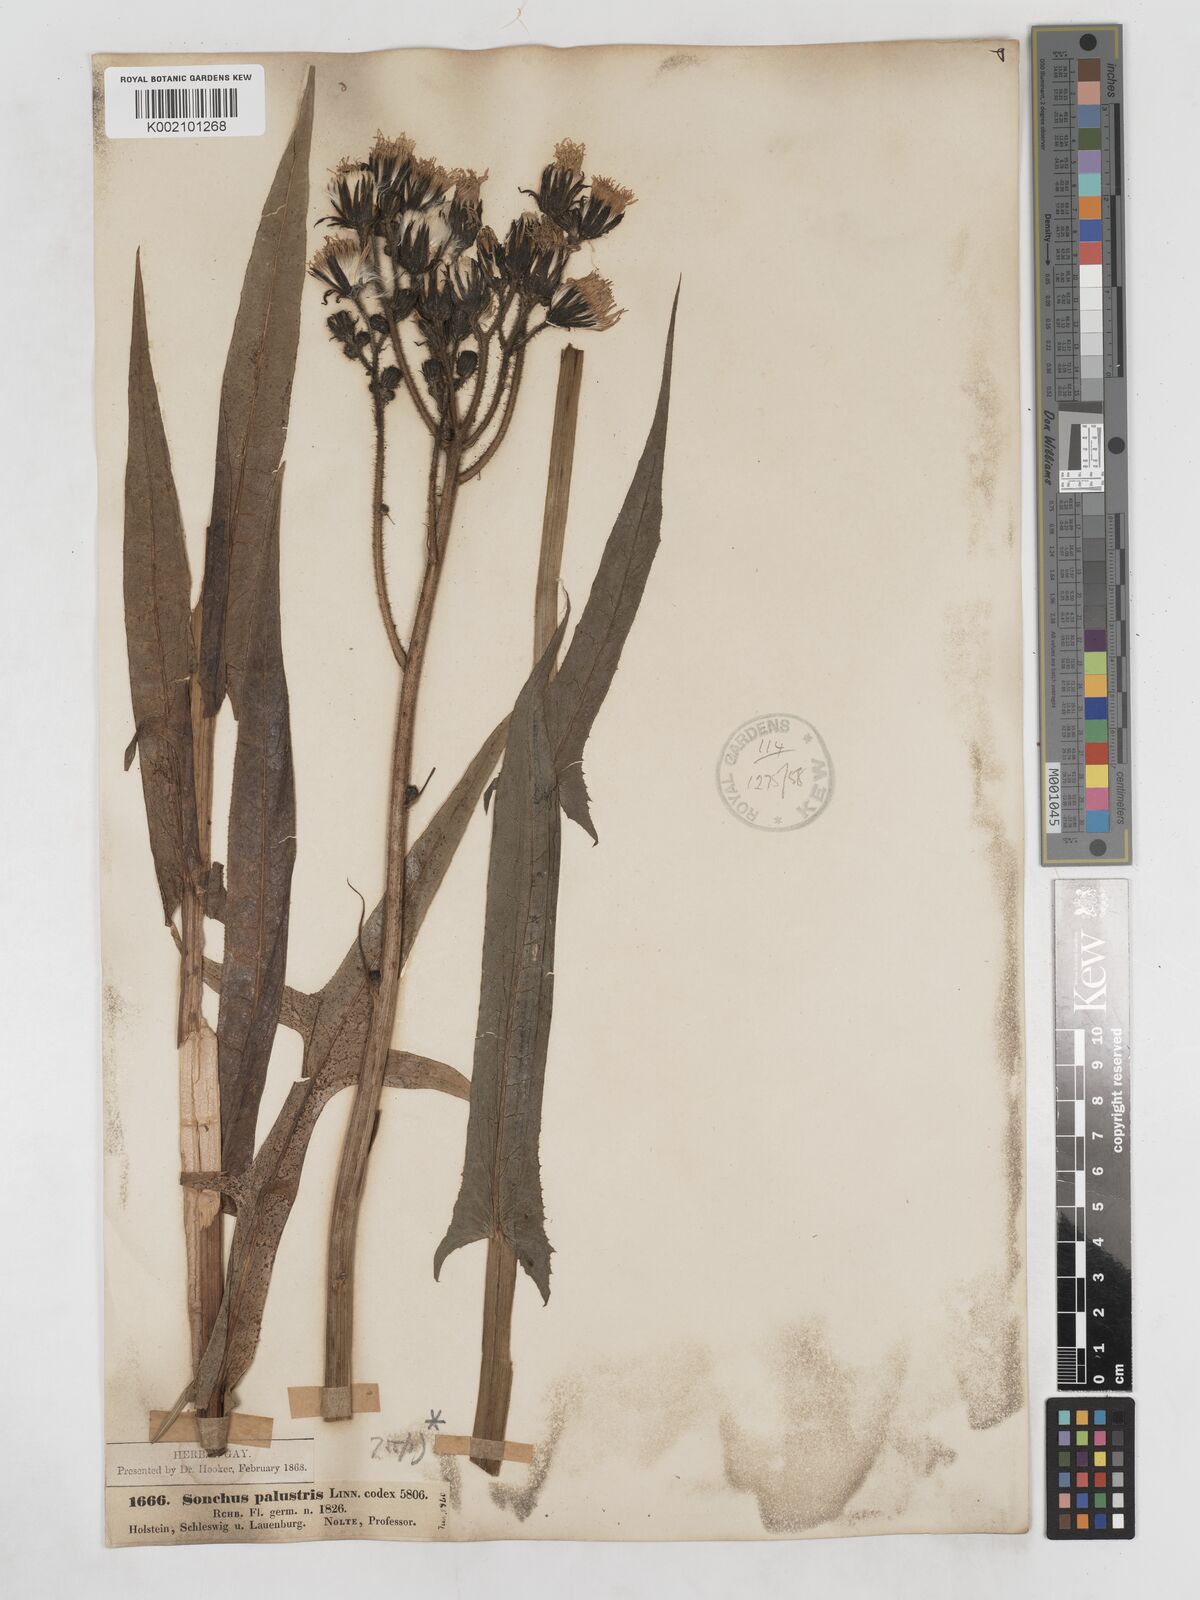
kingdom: Plantae
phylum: Tracheophyta
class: Magnoliopsida
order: Asterales
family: Asteraceae
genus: Sonchus
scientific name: Sonchus palustris
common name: Marsh sow-thistle
